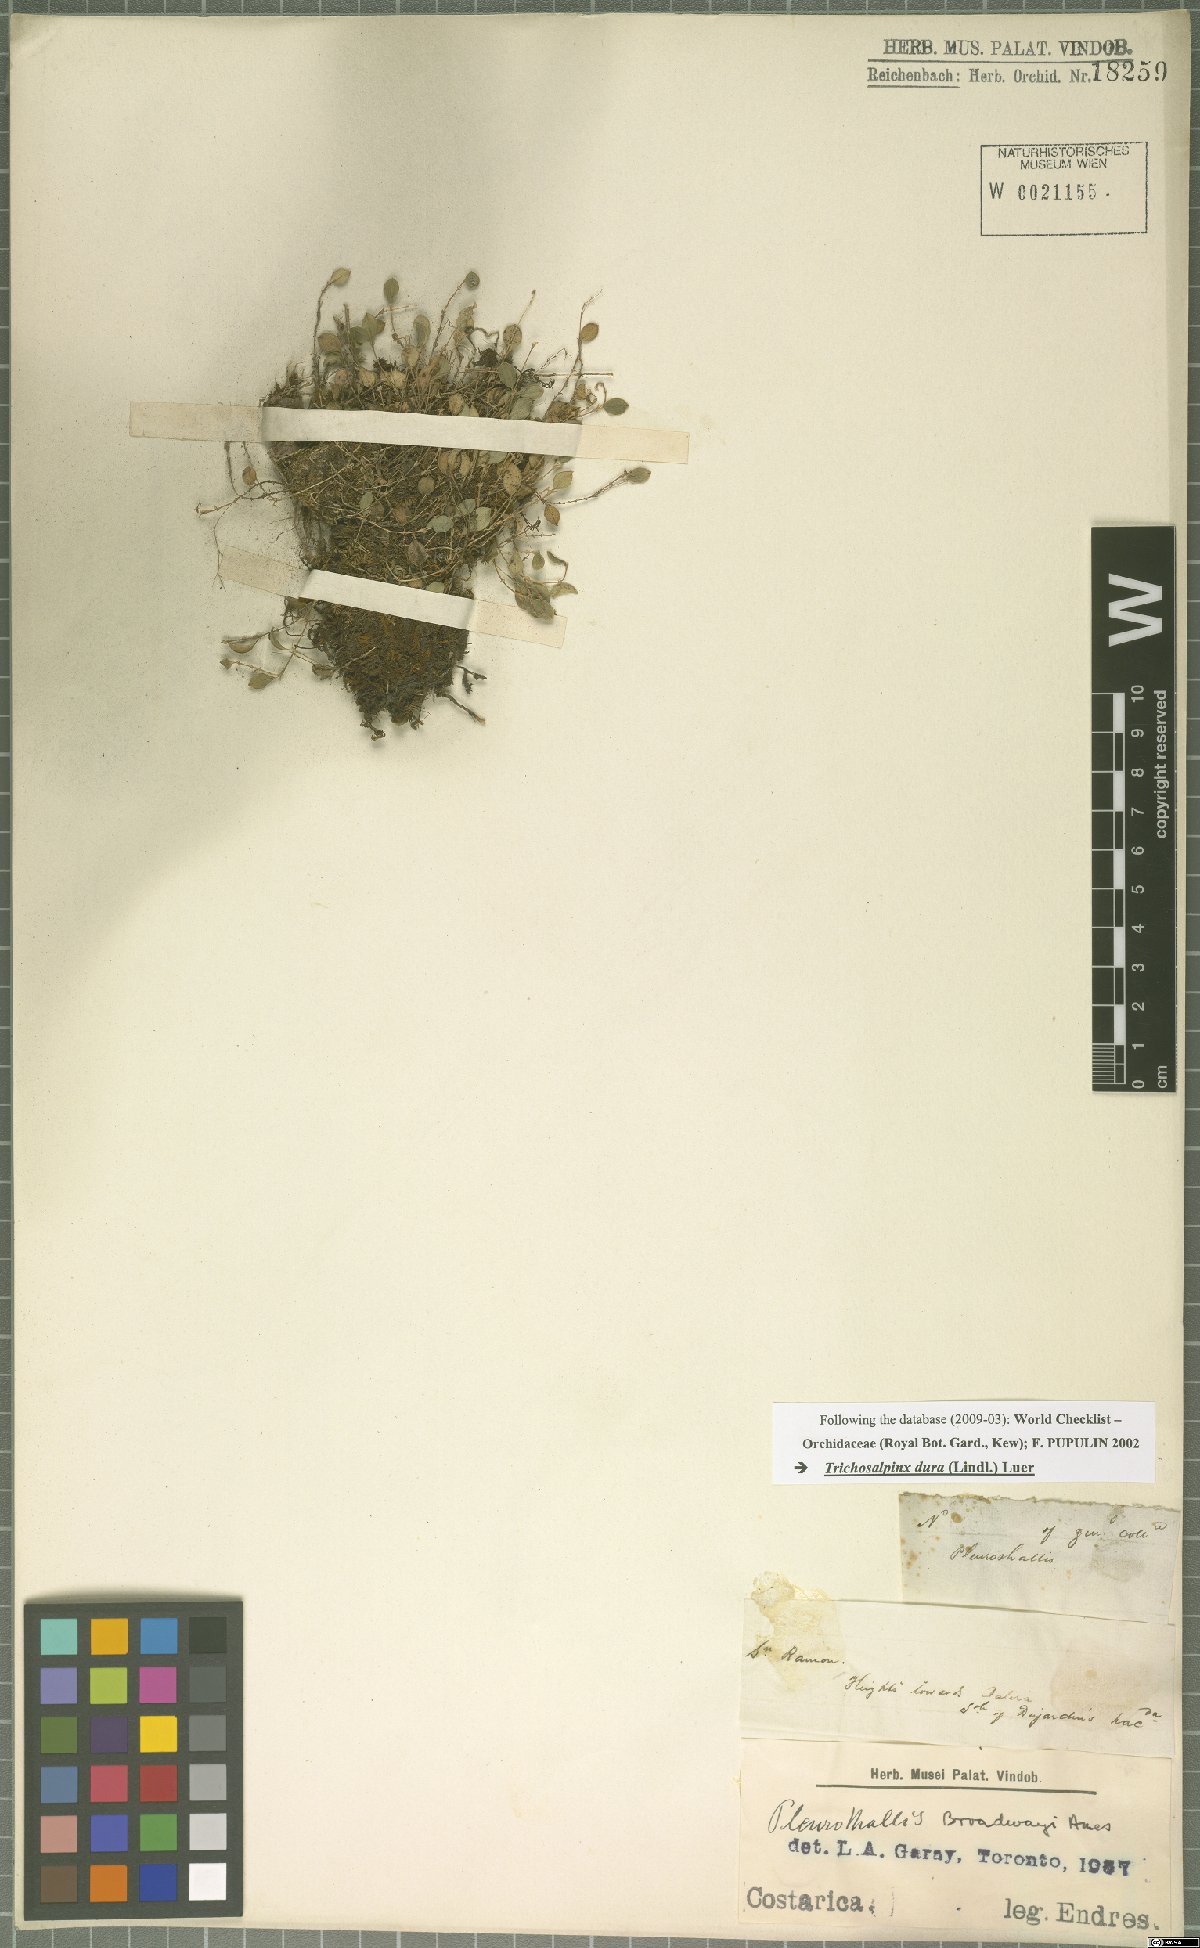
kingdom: Plantae
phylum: Tracheophyta
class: Liliopsida
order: Asparagales
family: Orchidaceae
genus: Trichosalpinx
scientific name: Trichosalpinx dura
